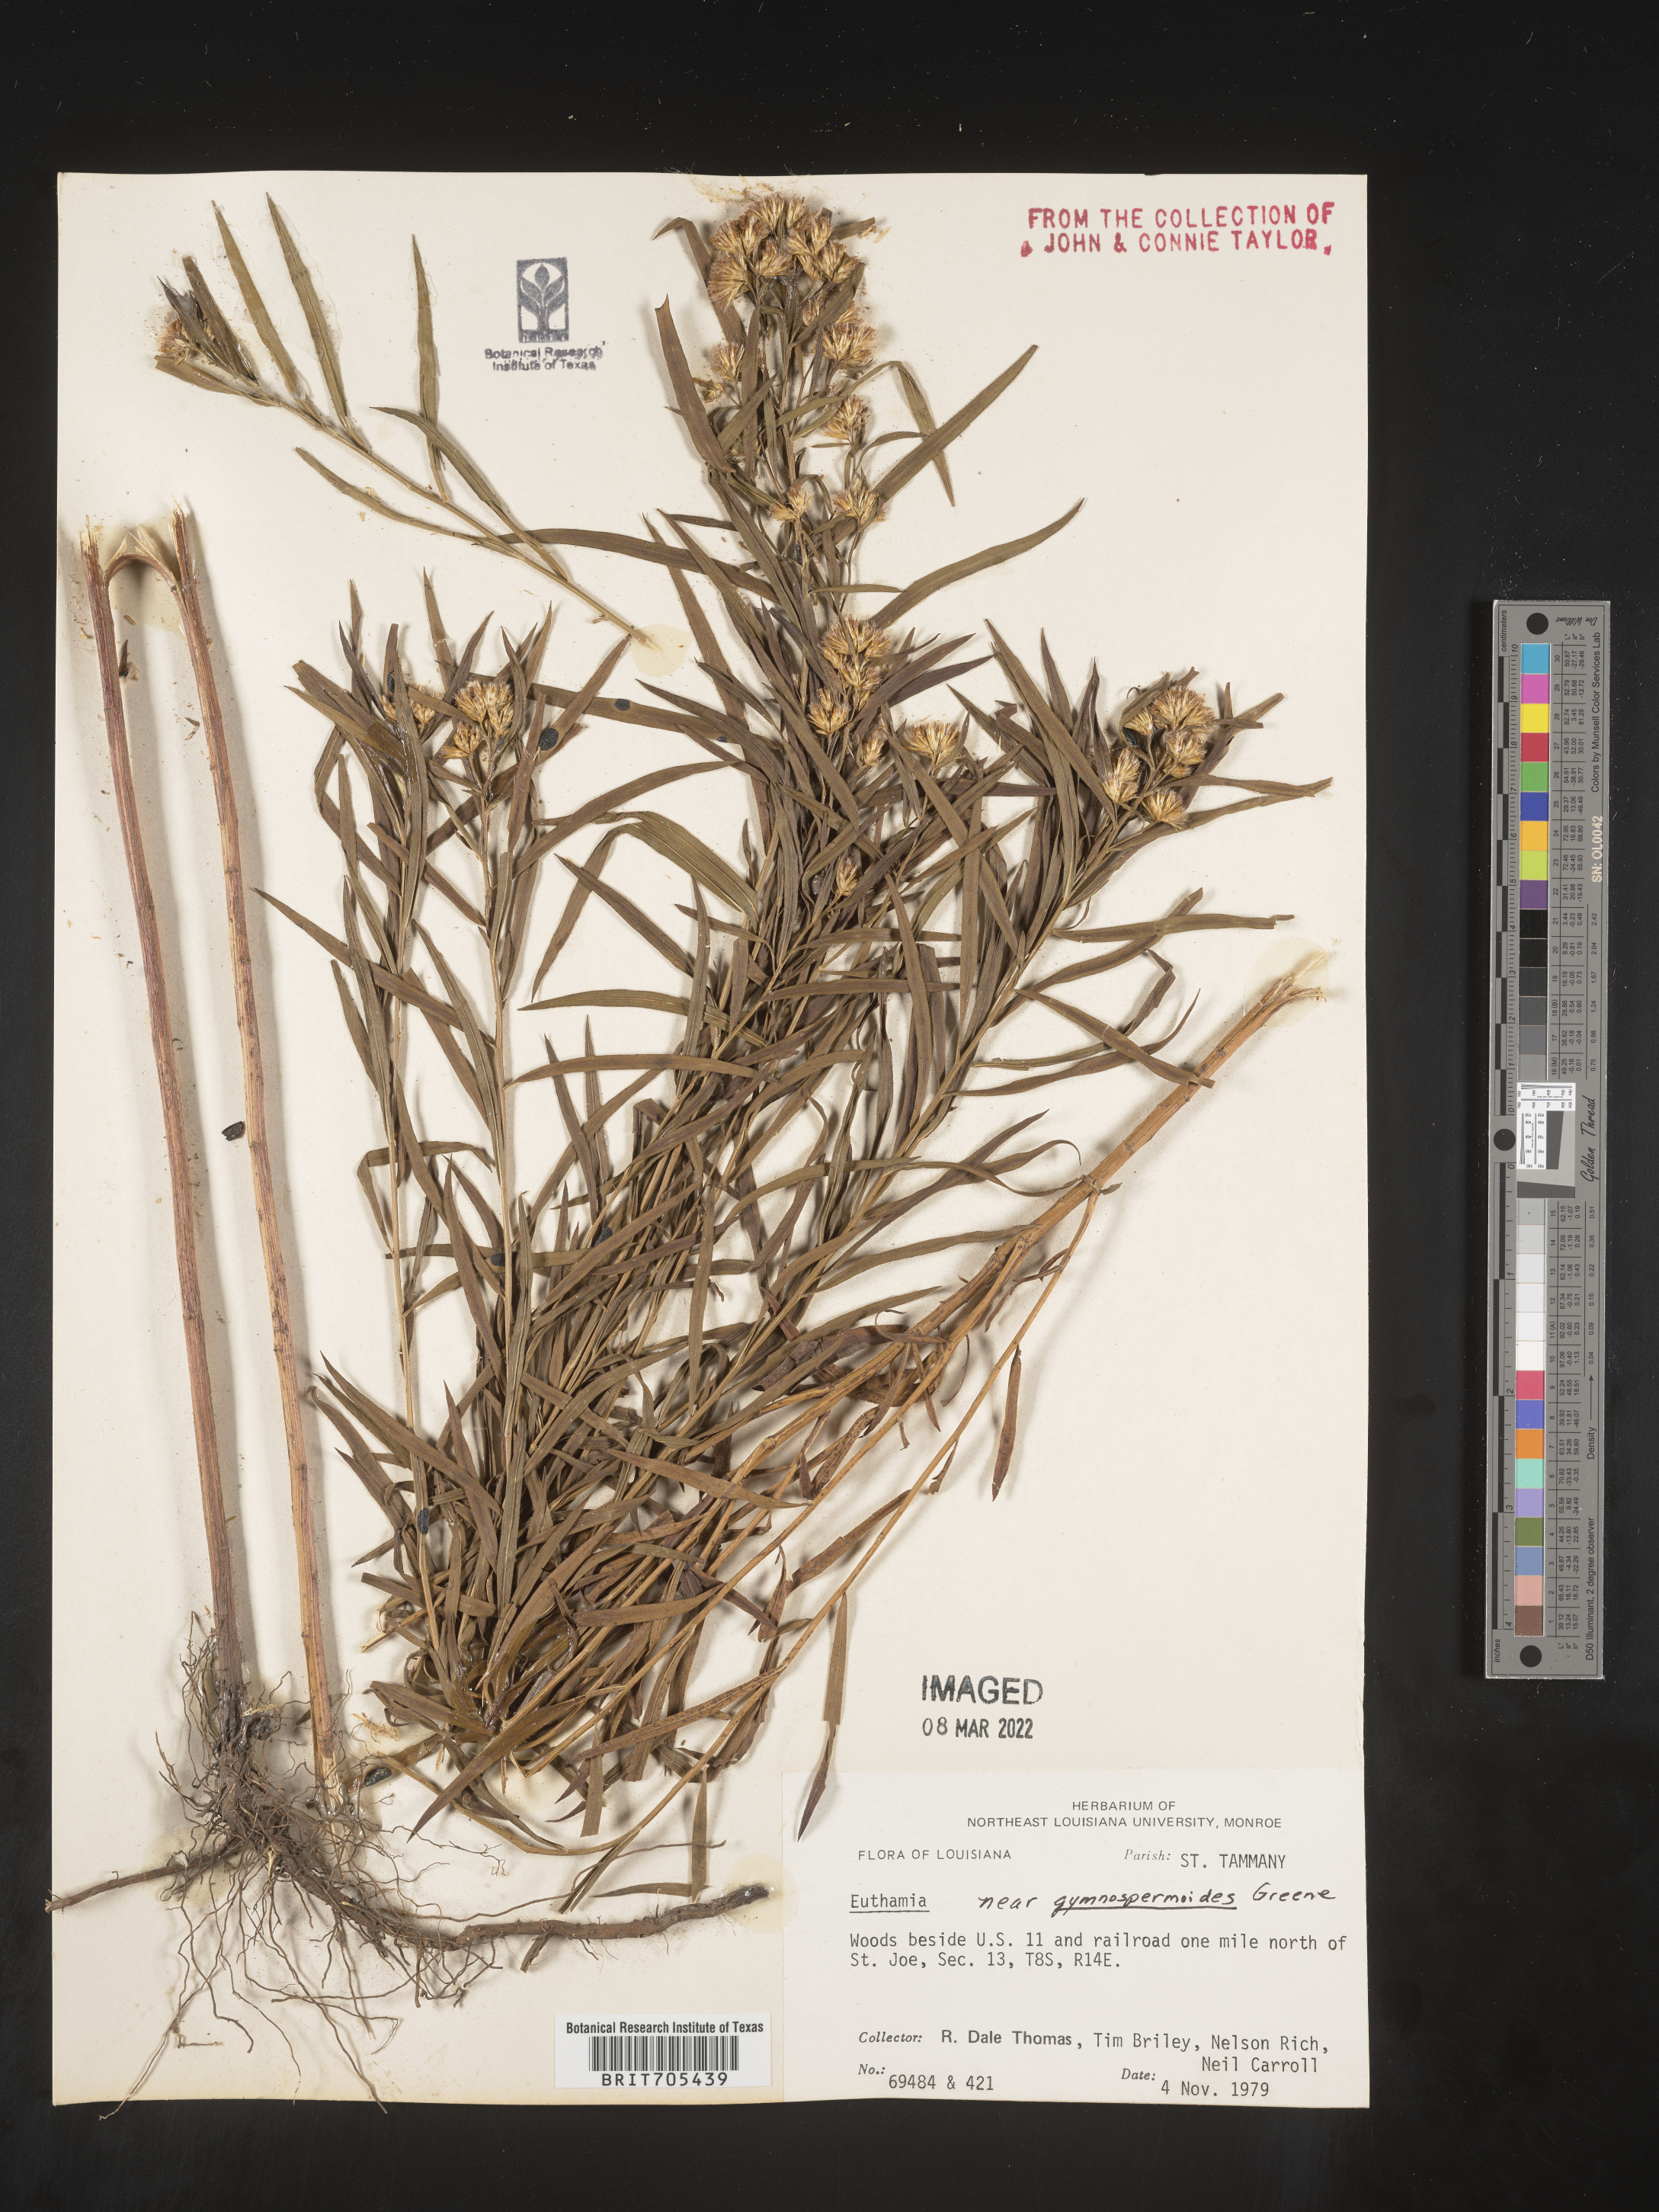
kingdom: Plantae
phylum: Tracheophyta
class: Magnoliopsida
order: Asterales
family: Asteraceae
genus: Euthamia
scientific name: Euthamia
